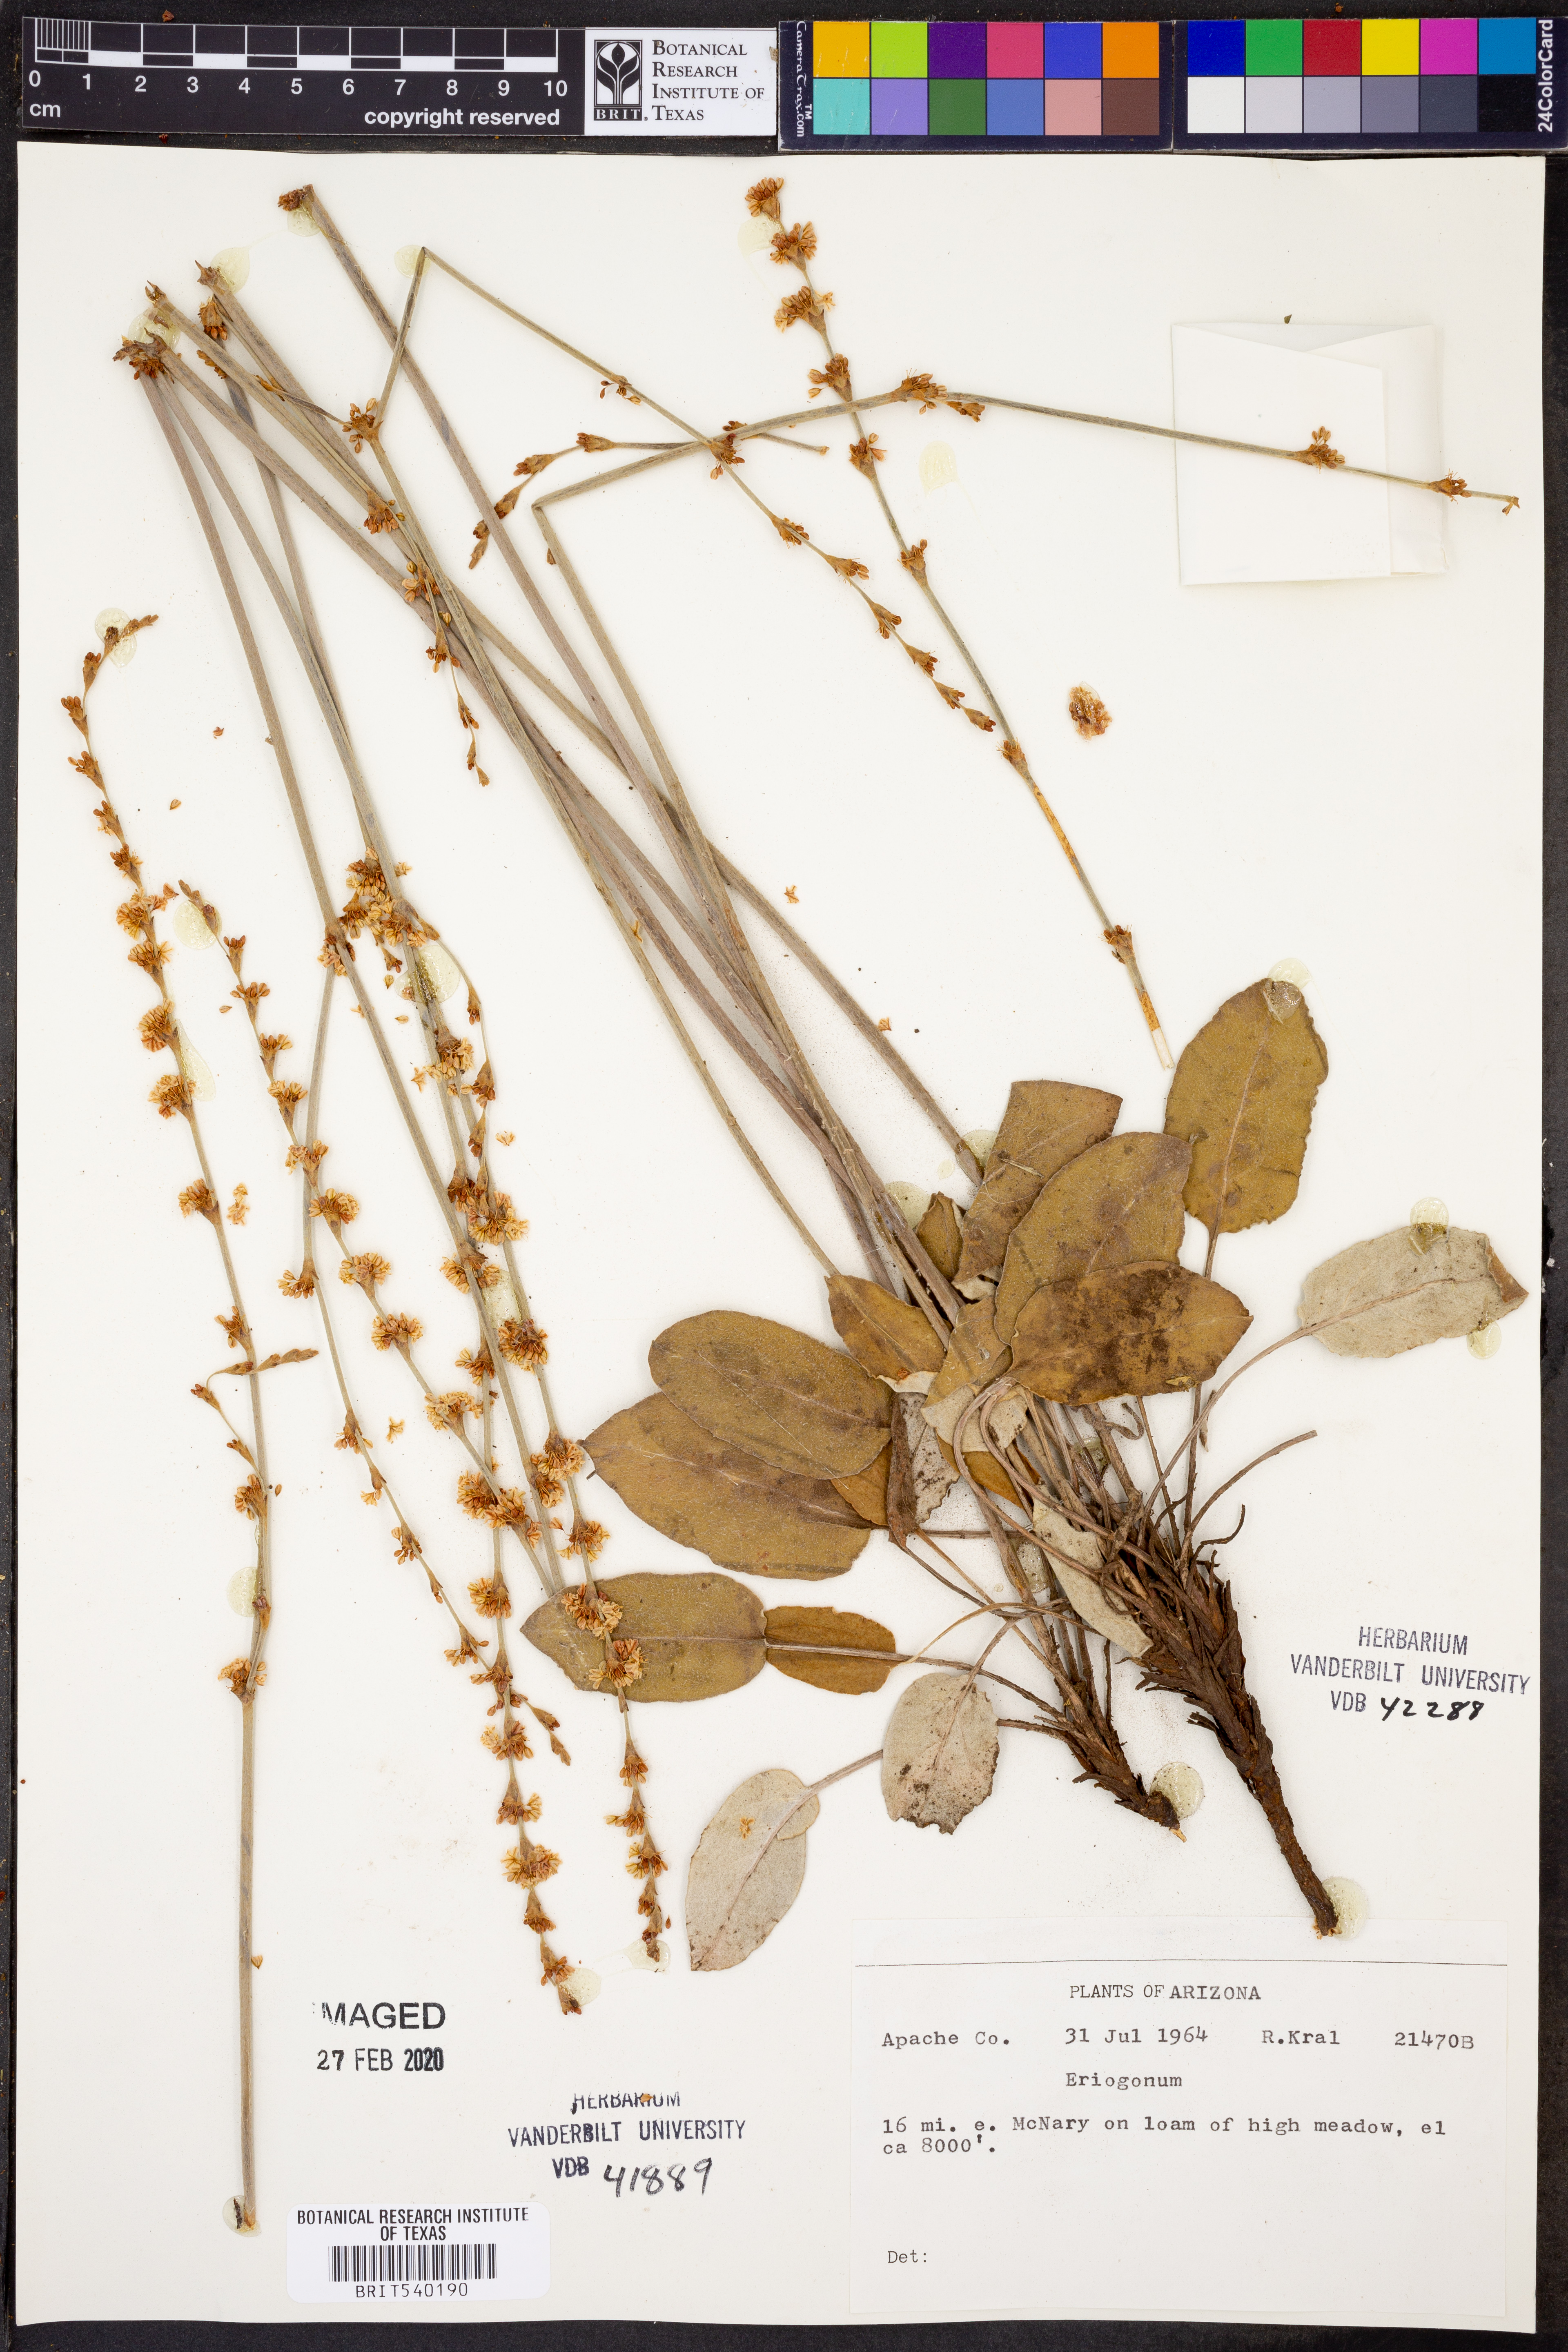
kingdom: Plantae
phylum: Tracheophyta
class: Magnoliopsida
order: Caryophyllales
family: Polygonaceae
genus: Eriogonum
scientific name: Eriogonum
